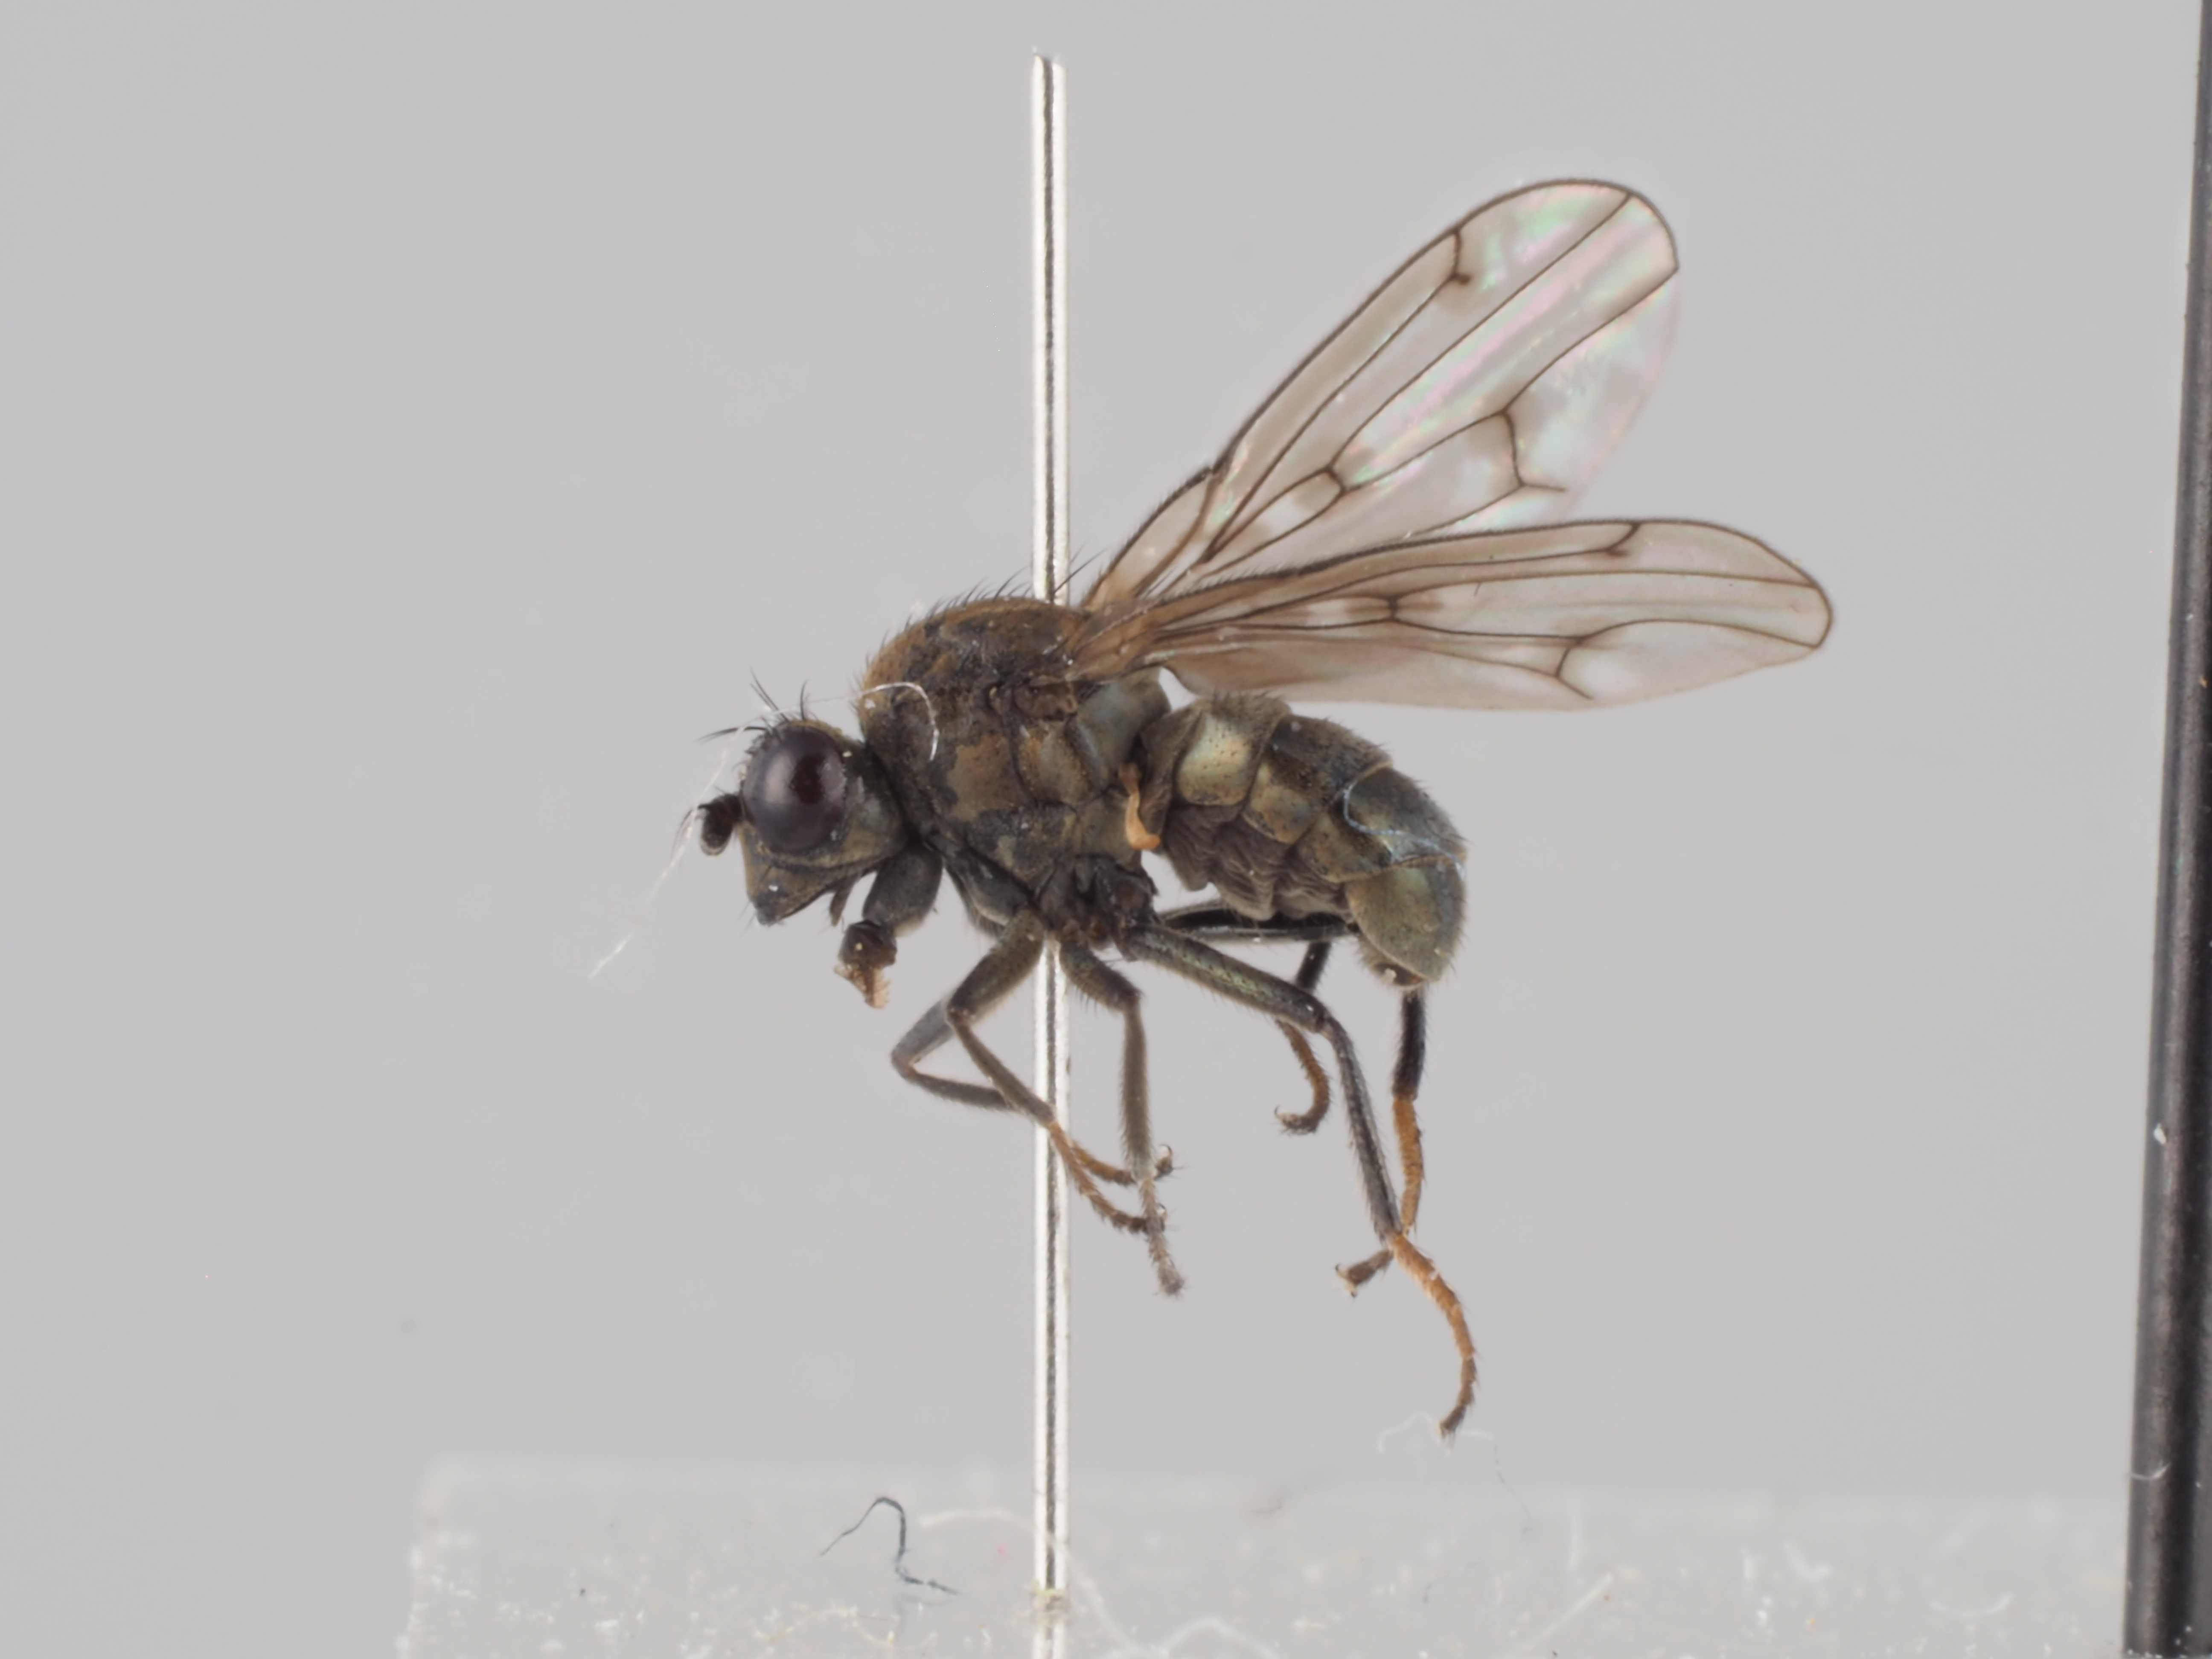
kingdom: Animalia
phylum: Arthropoda
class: Insecta
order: Diptera
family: Ephydridae
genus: Parydra
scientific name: Parydra quadripunctata
